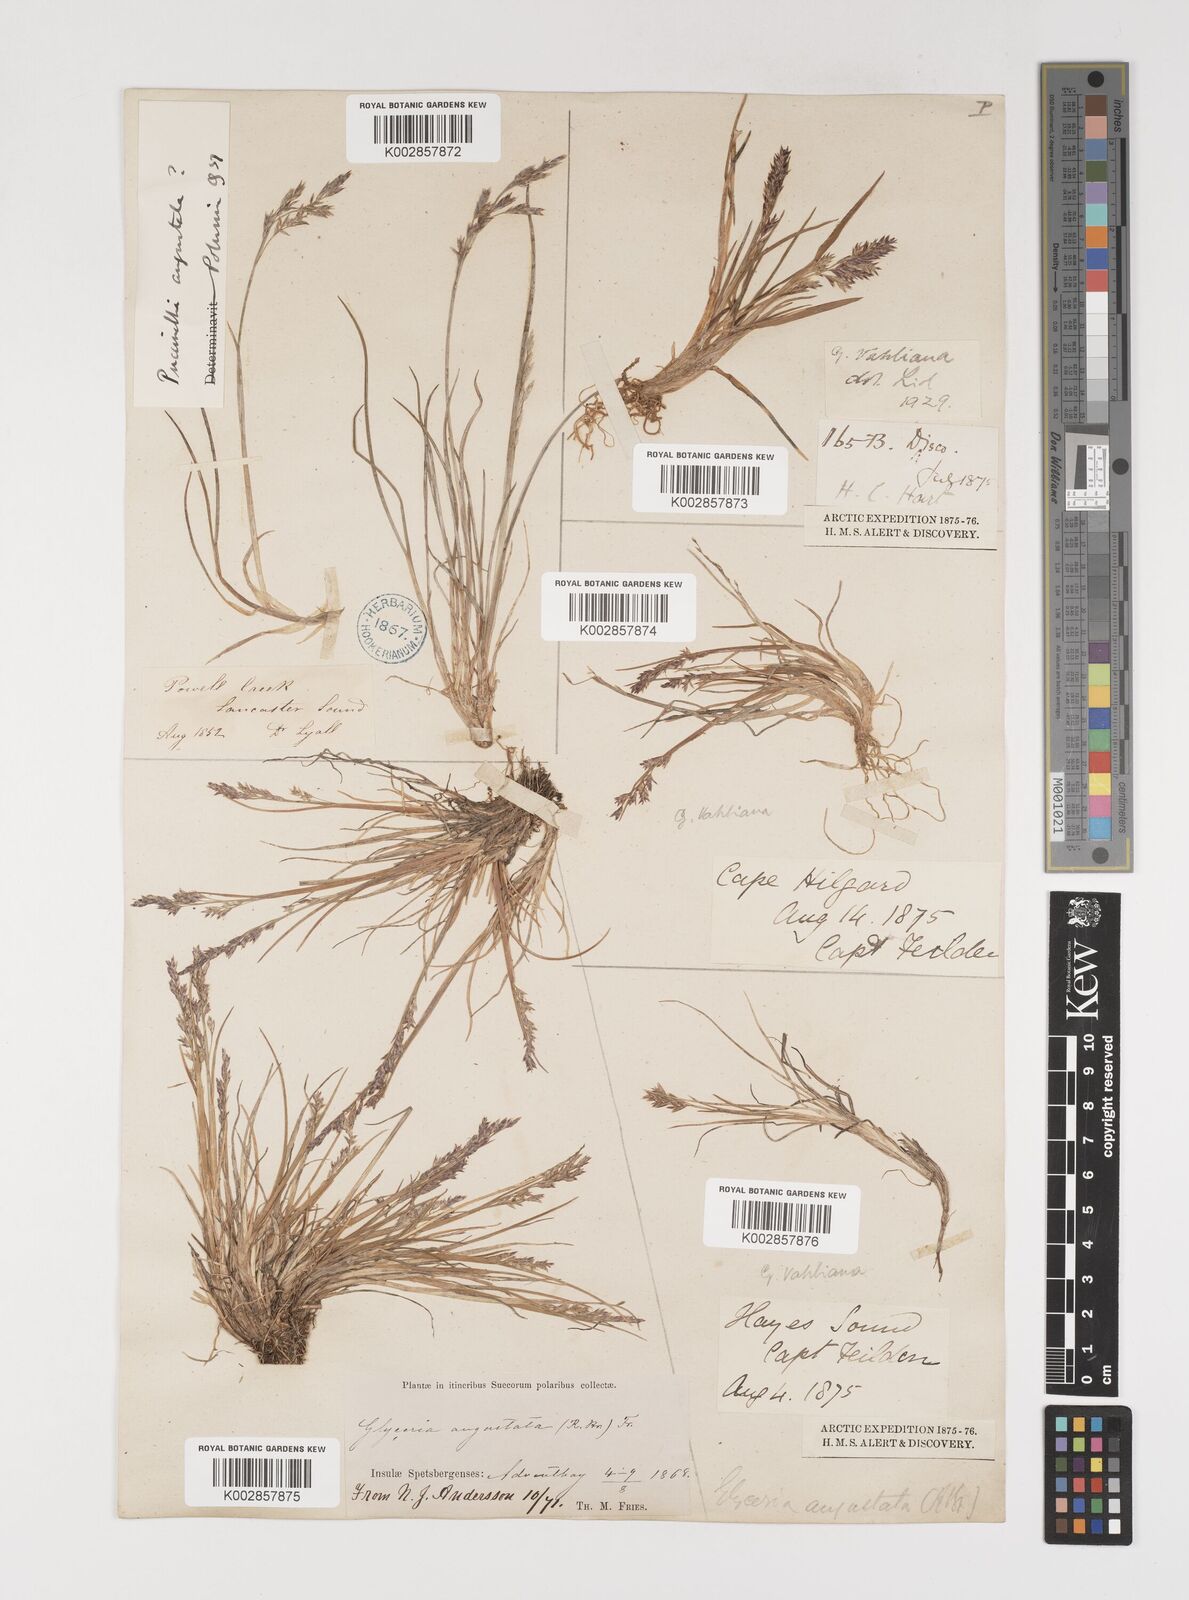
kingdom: Plantae
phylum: Tracheophyta
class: Liliopsida
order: Poales
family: Poaceae
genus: Puccinellia
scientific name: Puccinellia vahliana
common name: Vahl's alkaligrass
